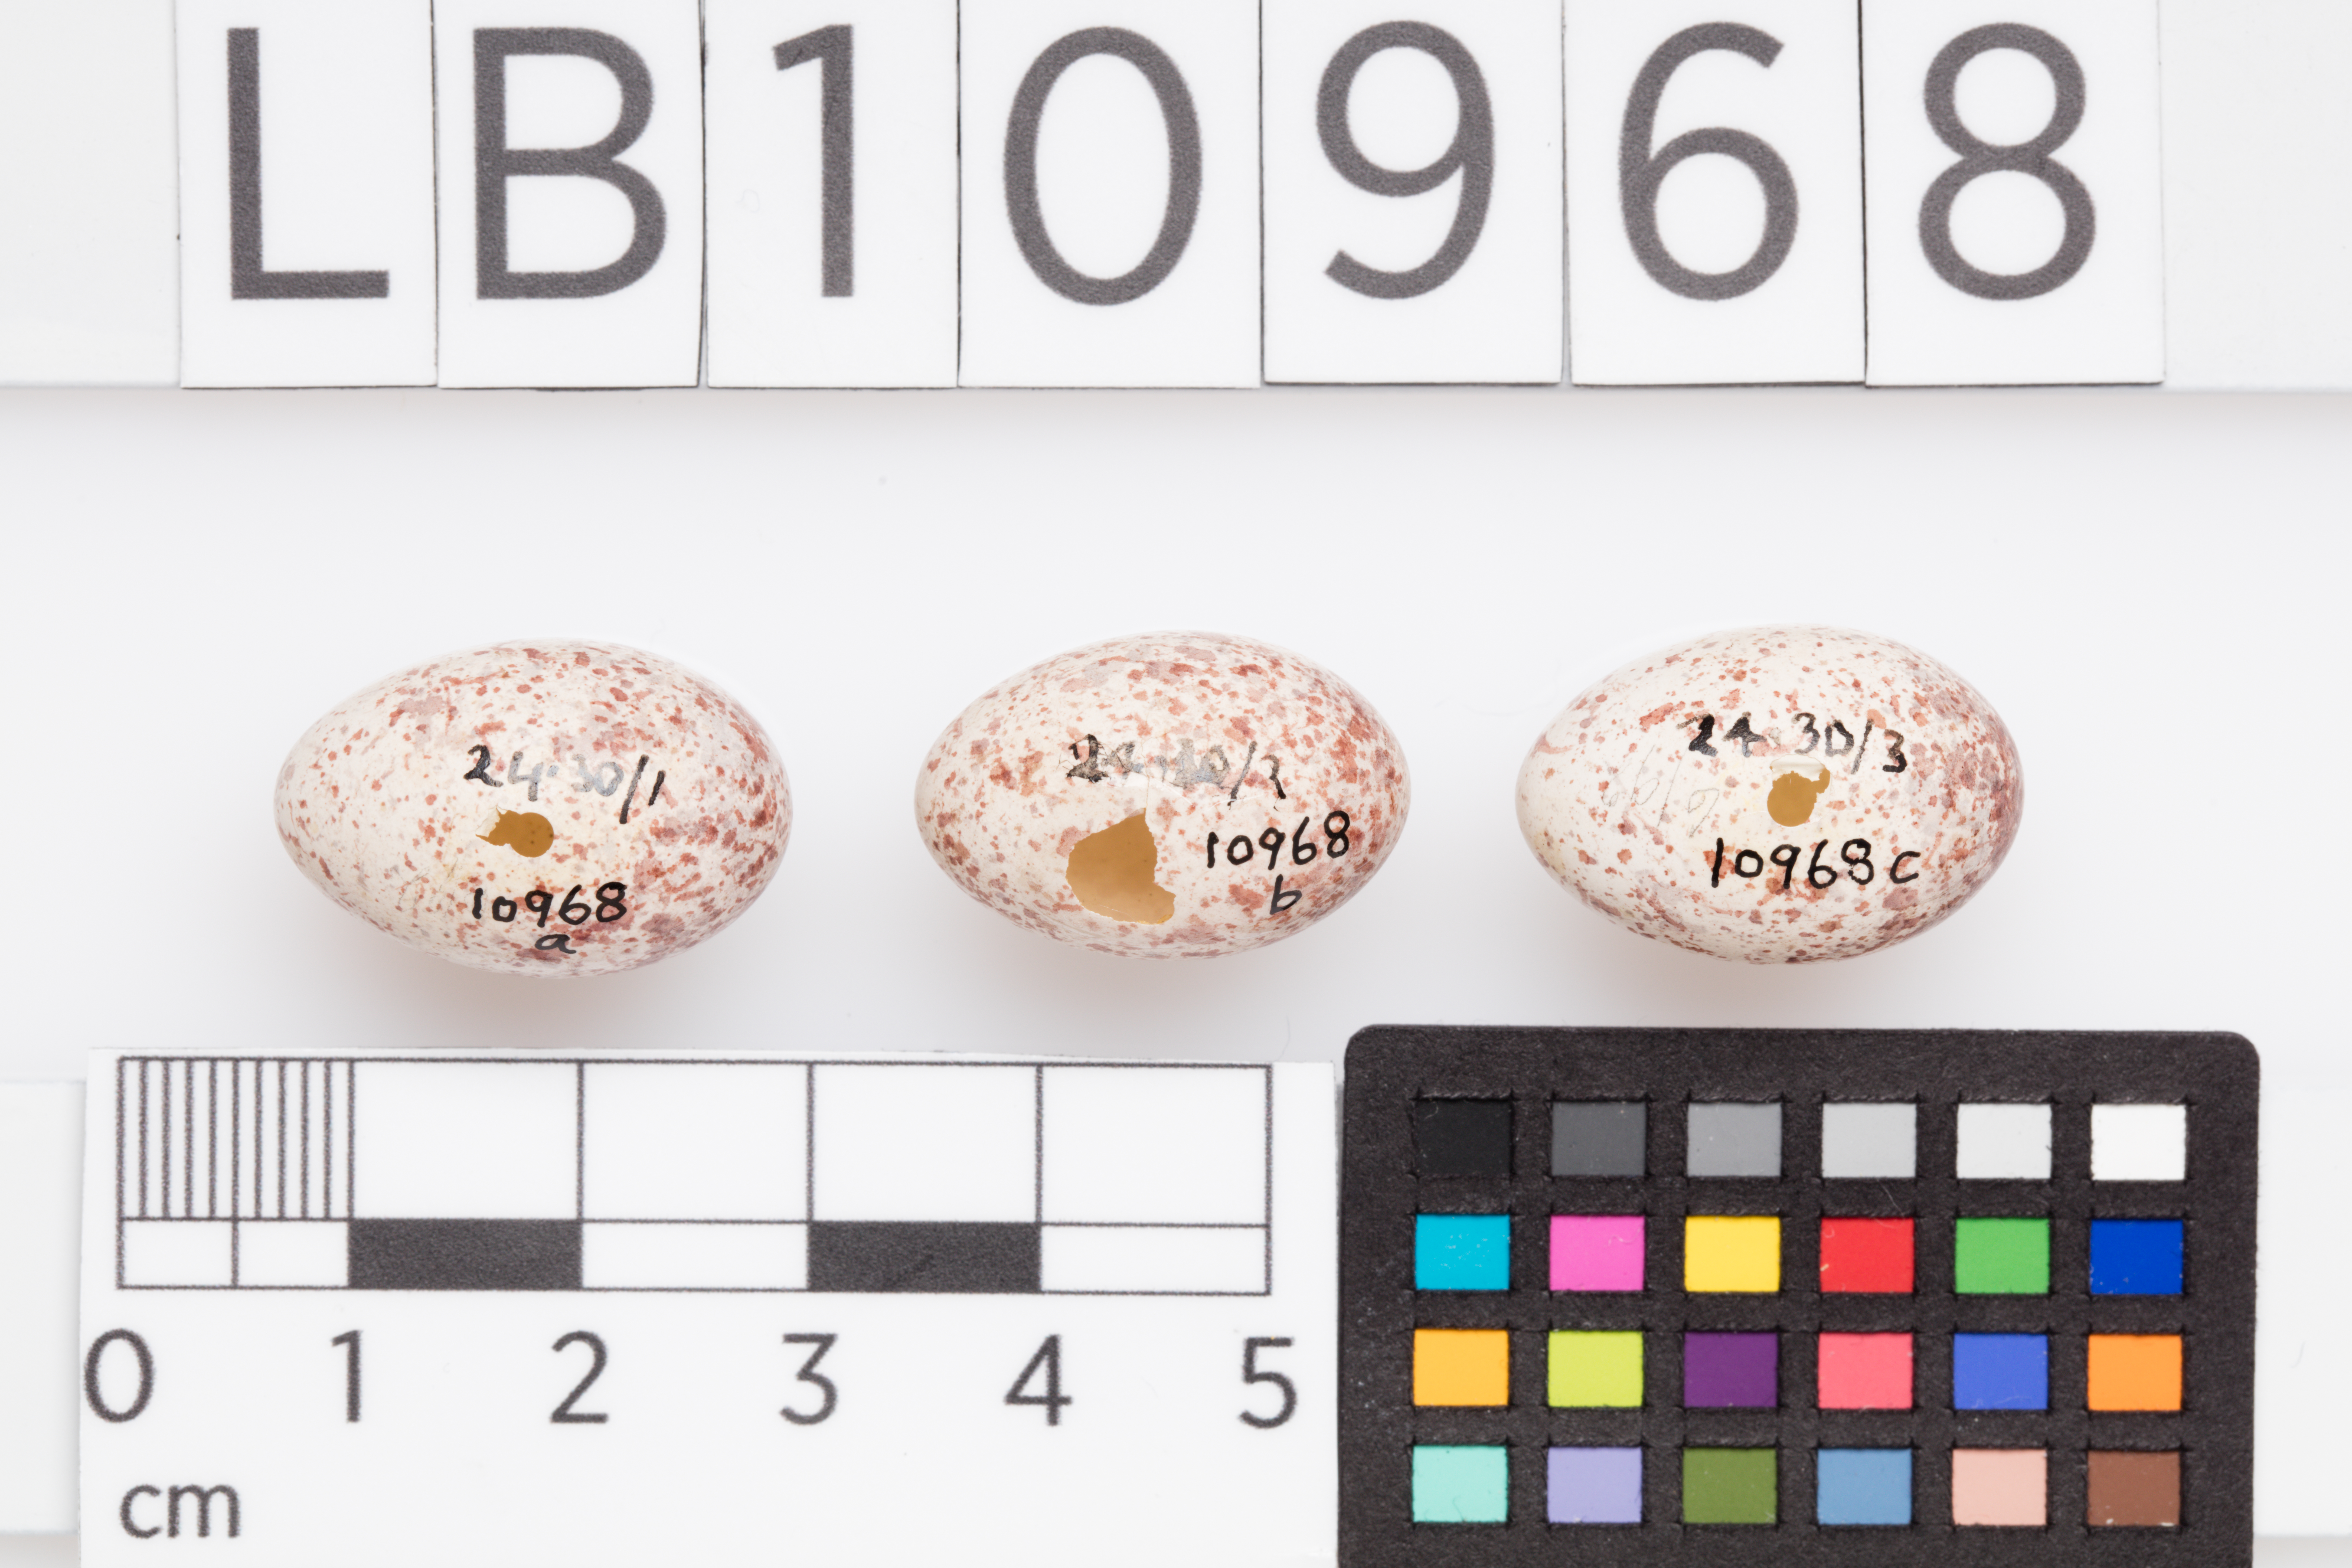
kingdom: Animalia
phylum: Chordata
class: Aves
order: Passeriformes
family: Locustellidae
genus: Megalurus
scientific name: Megalurus punctatus
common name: New zealand fernbird
